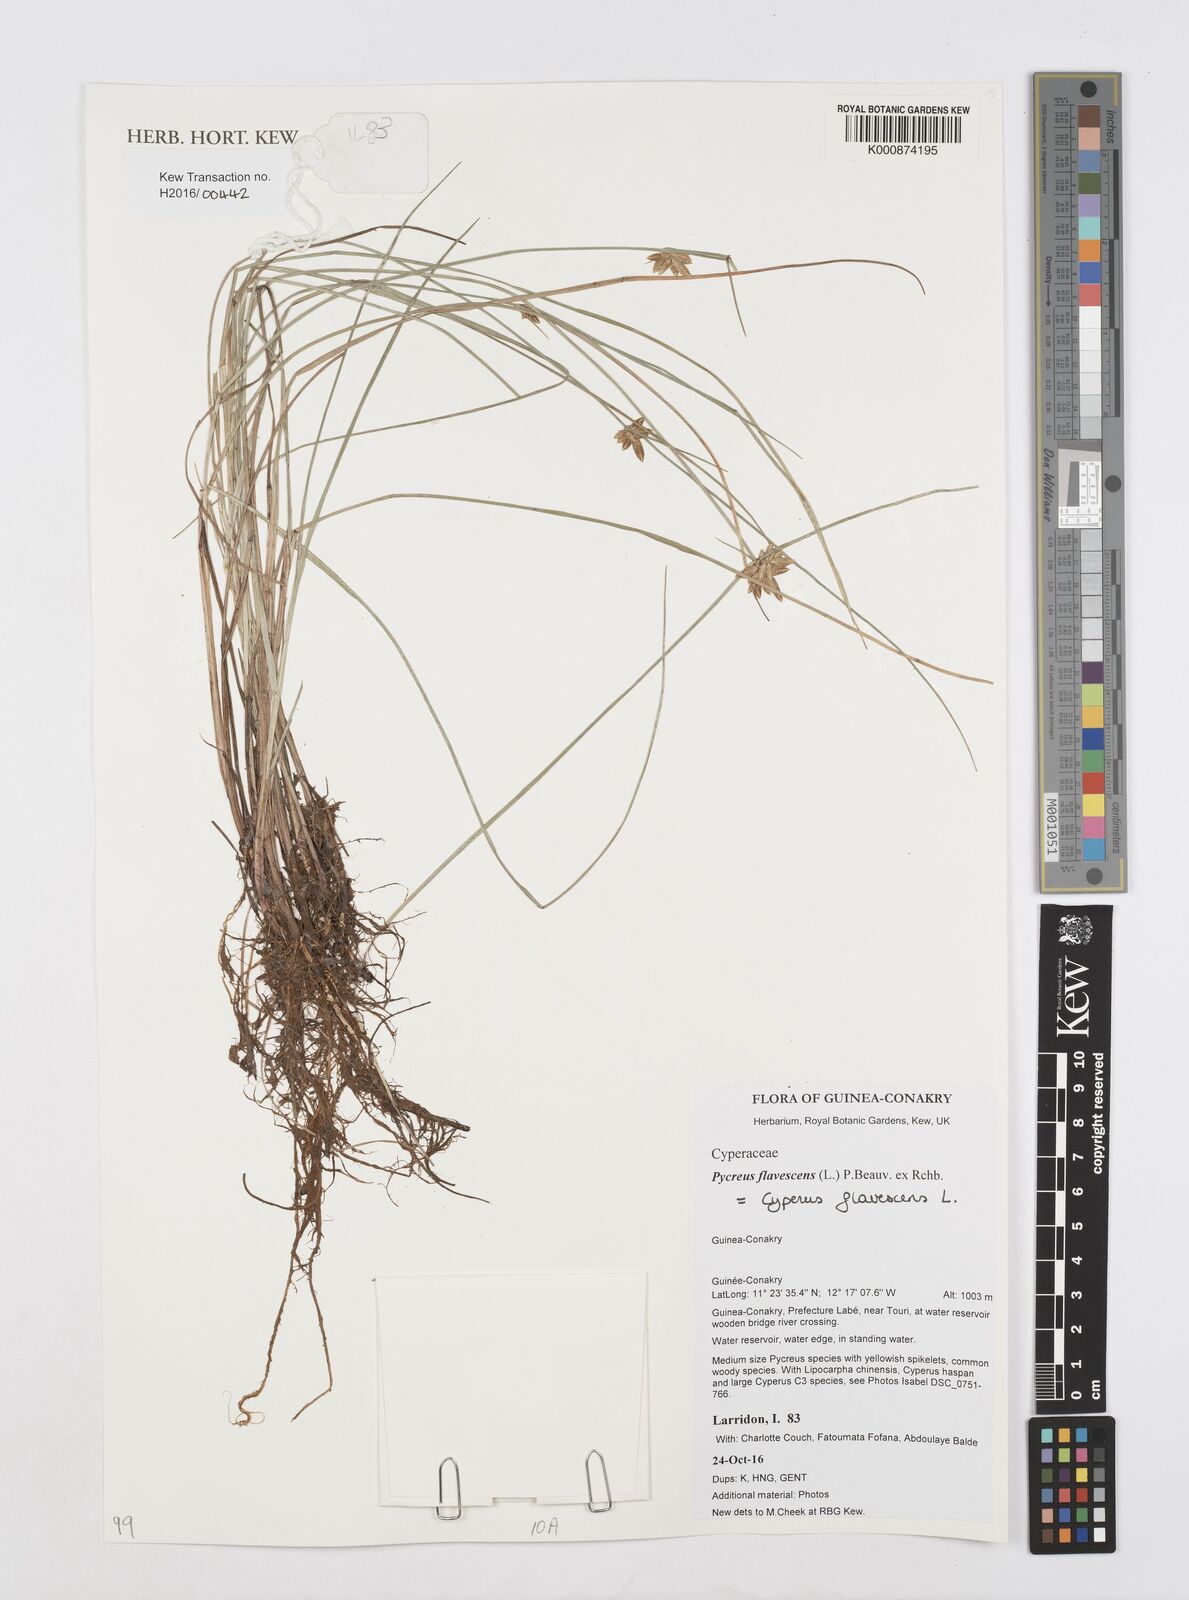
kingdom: Plantae
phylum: Tracheophyta
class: Liliopsida
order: Poales
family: Cyperaceae
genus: Cyperus
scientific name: Cyperus flavescens
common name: Yellow galingale
